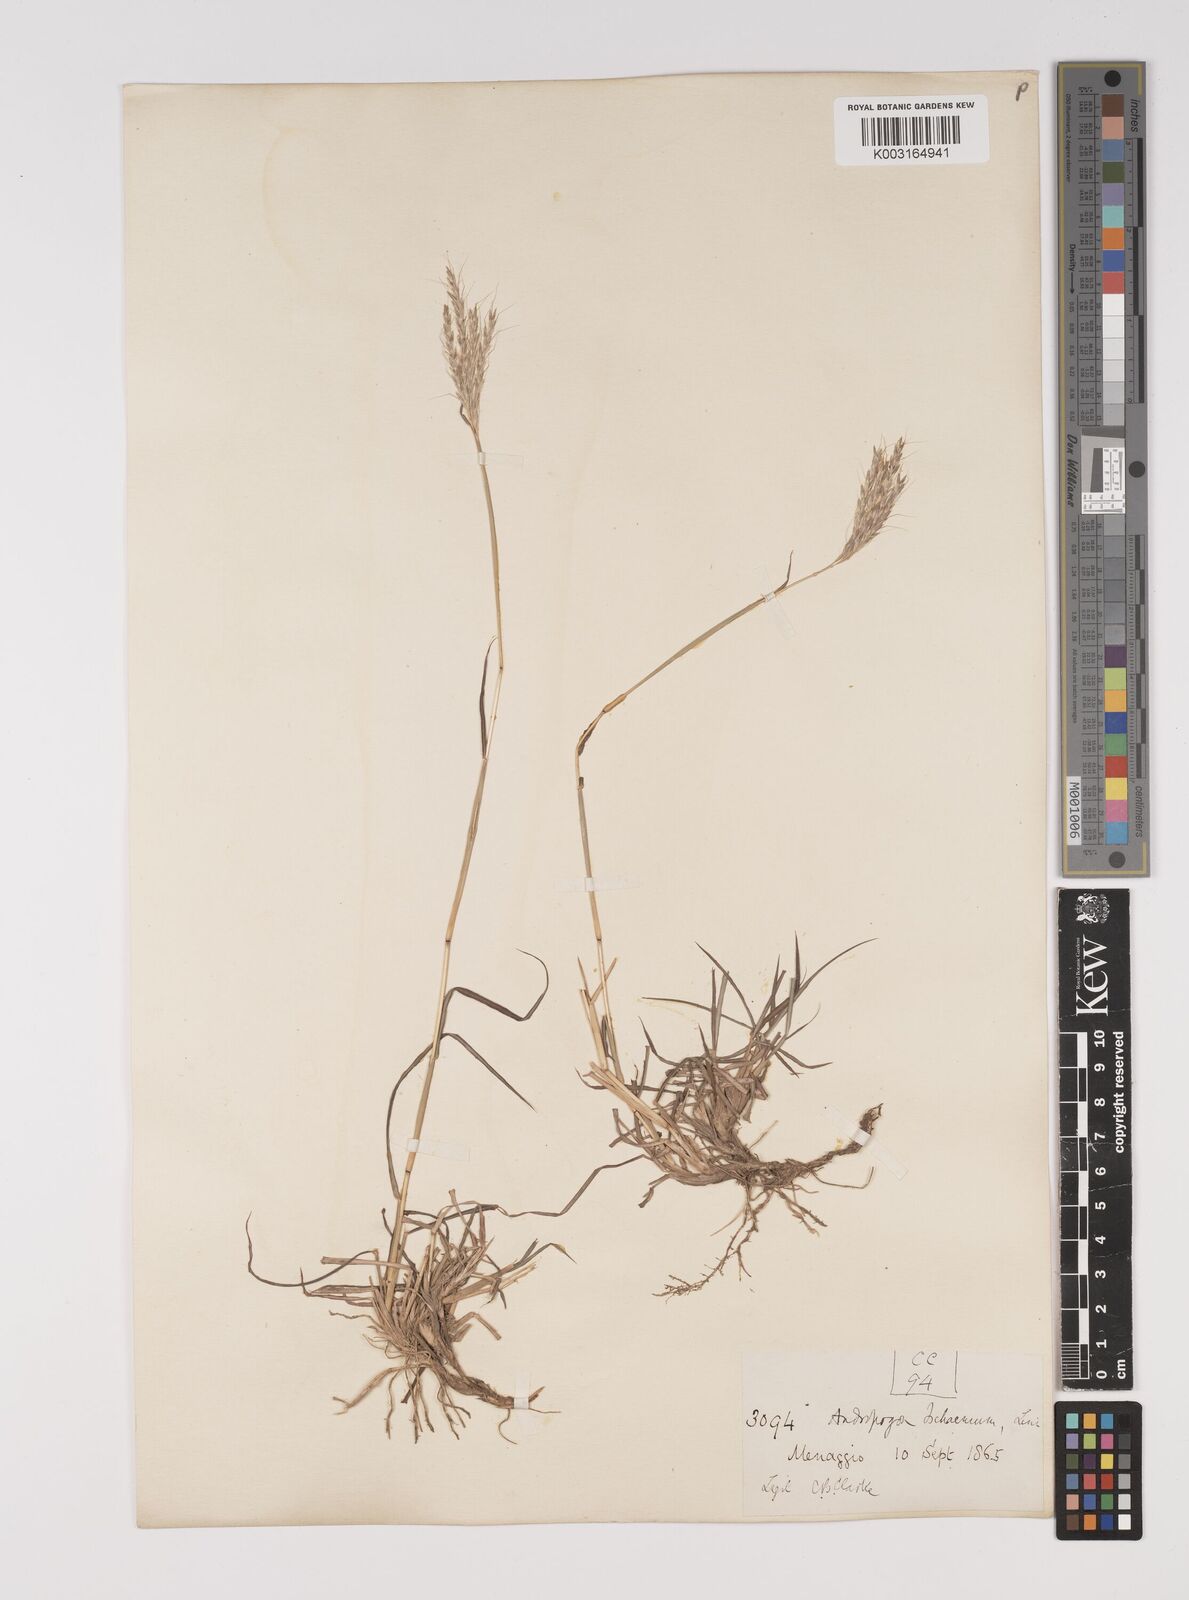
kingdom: Plantae
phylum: Tracheophyta
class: Liliopsida
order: Poales
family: Poaceae
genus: Bothriochloa
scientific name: Bothriochloa ischaemum
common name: Yellow bluestem
